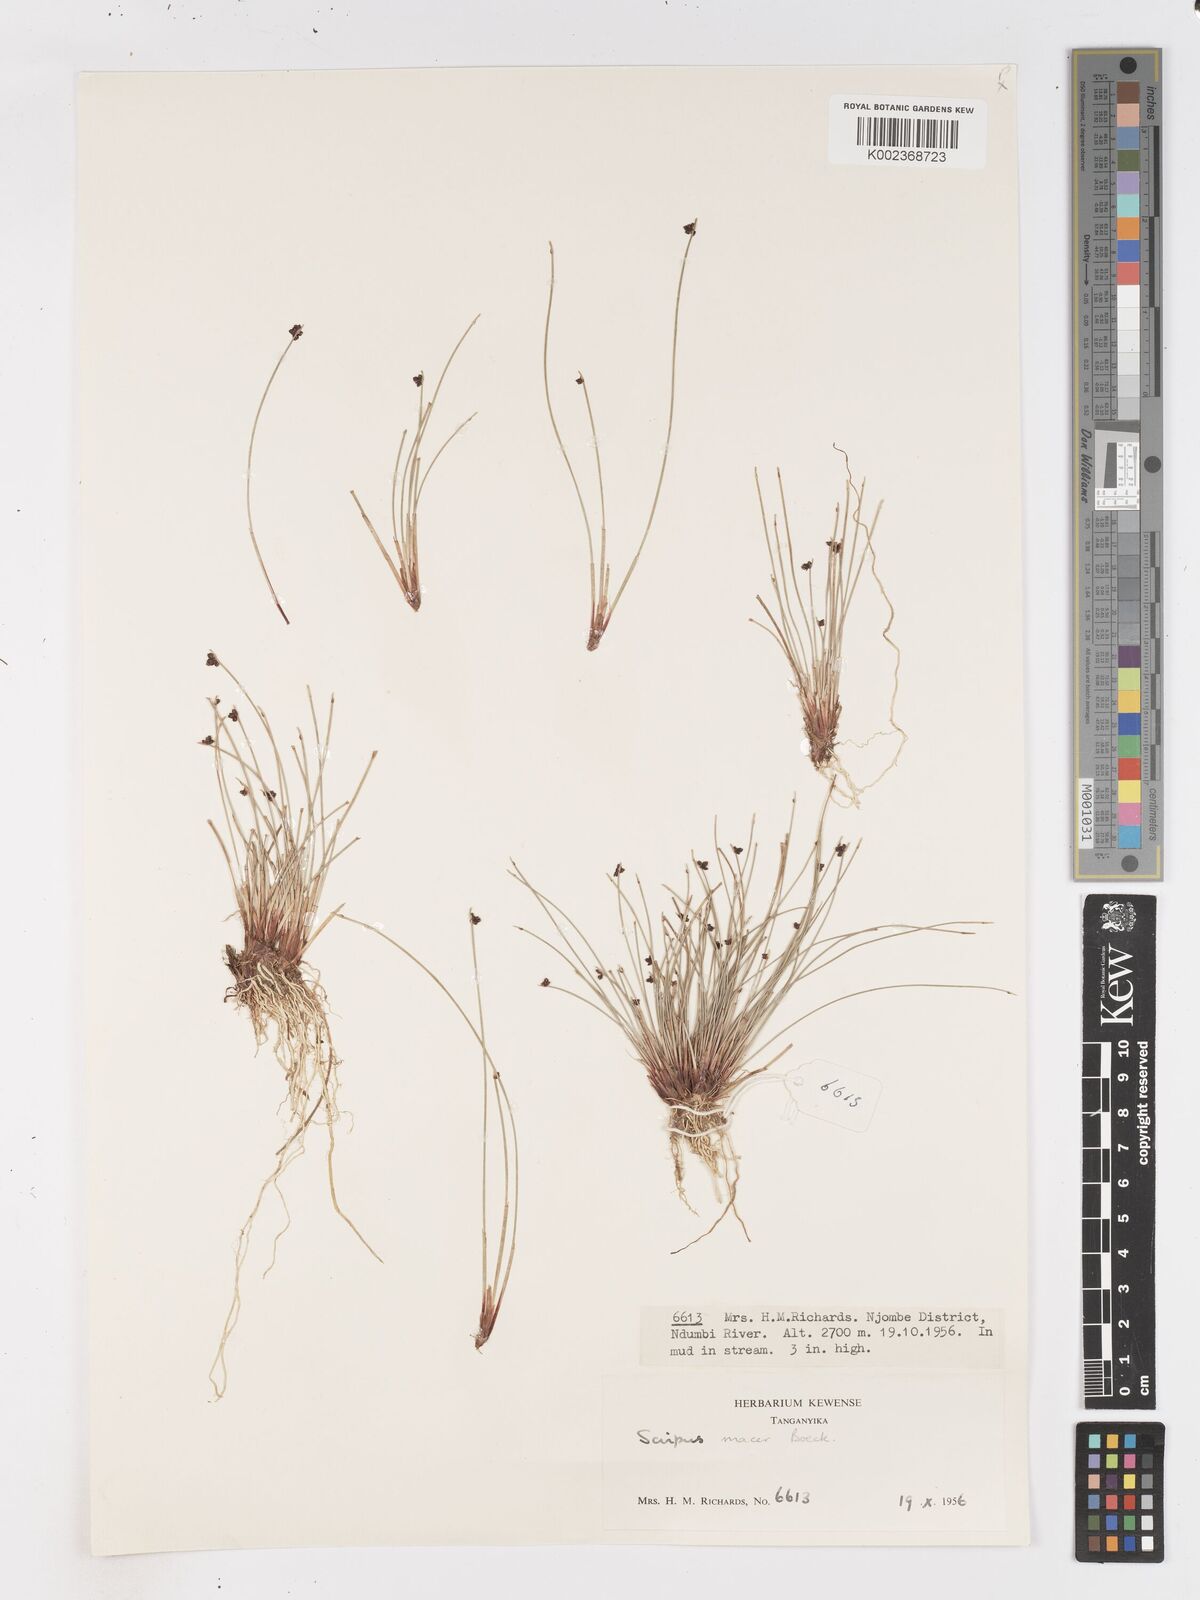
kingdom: Plantae
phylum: Tracheophyta
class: Liliopsida
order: Poales
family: Cyperaceae
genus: Isolepis
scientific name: Isolepis costata
